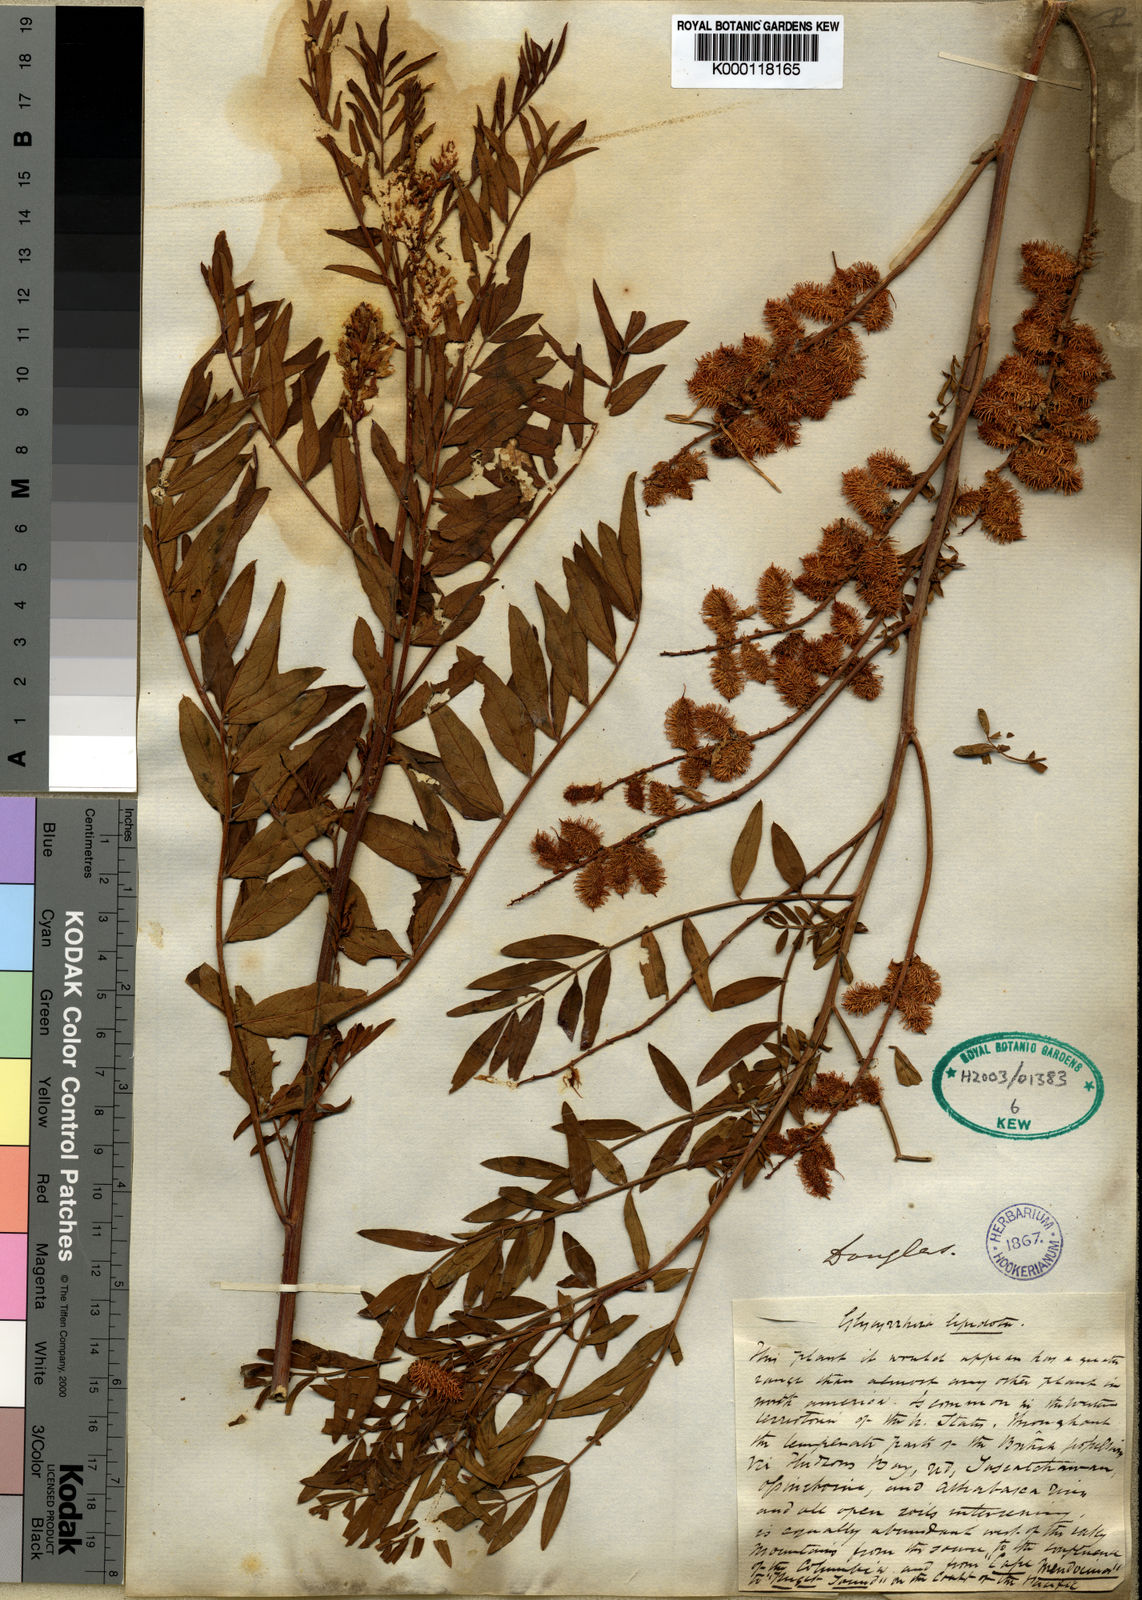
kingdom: Plantae
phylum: Tracheophyta
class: Magnoliopsida
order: Fabales
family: Fabaceae
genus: Glycyrrhiza
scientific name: Glycyrrhiza
